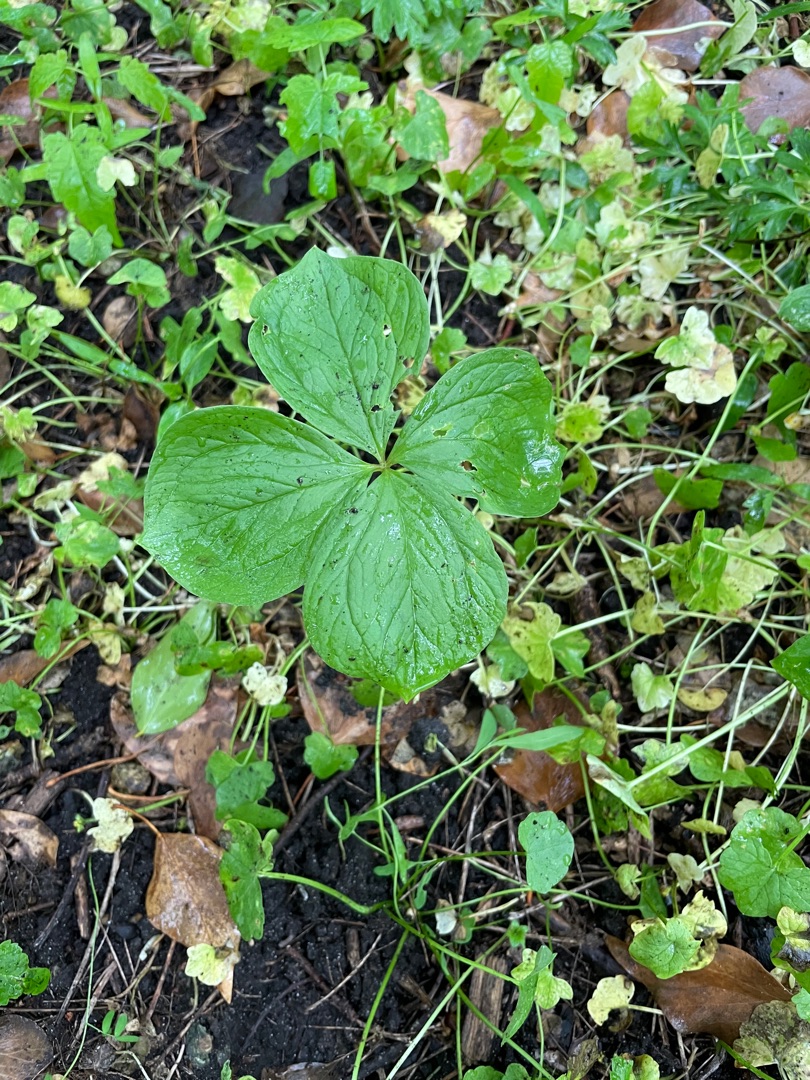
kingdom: Plantae
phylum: Tracheophyta
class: Liliopsida
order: Liliales
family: Melanthiaceae
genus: Paris
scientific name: Paris quadrifolia
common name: Firblad
